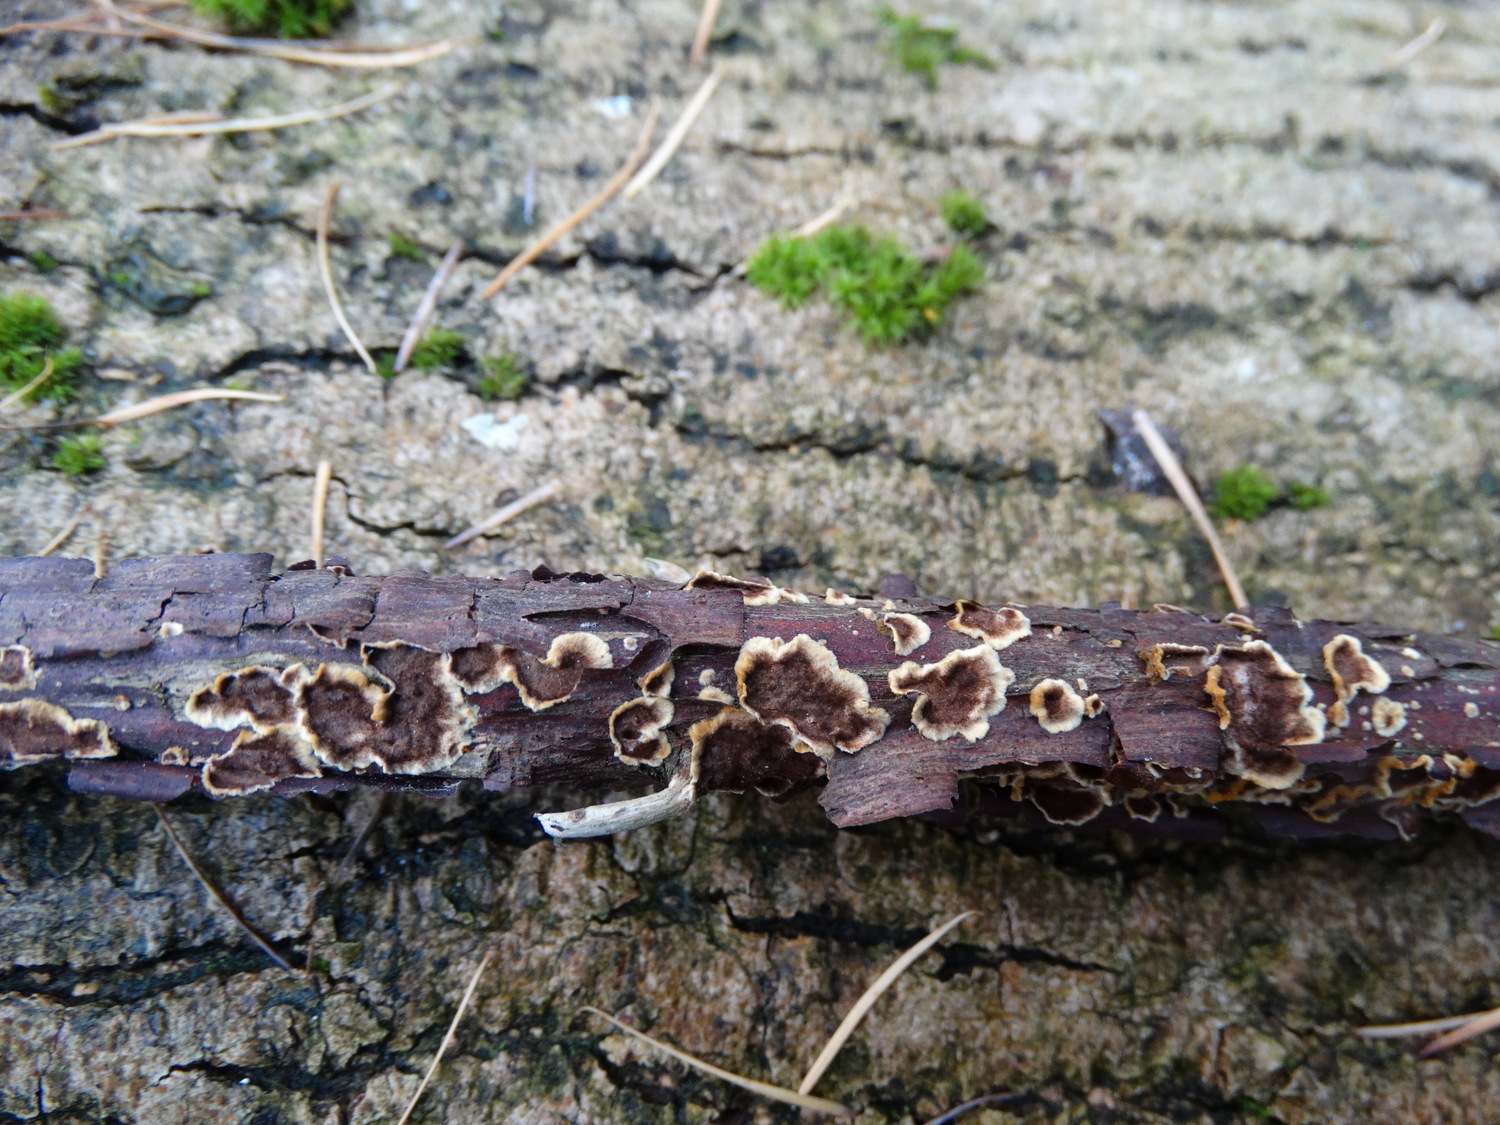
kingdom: Fungi
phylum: Basidiomycota
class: Agaricomycetes
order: Hymenochaetales
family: Hymenochaetaceae
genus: Hydnoporia
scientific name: Hydnoporia tabacina
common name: tobaksbrun ruslædersvamp
